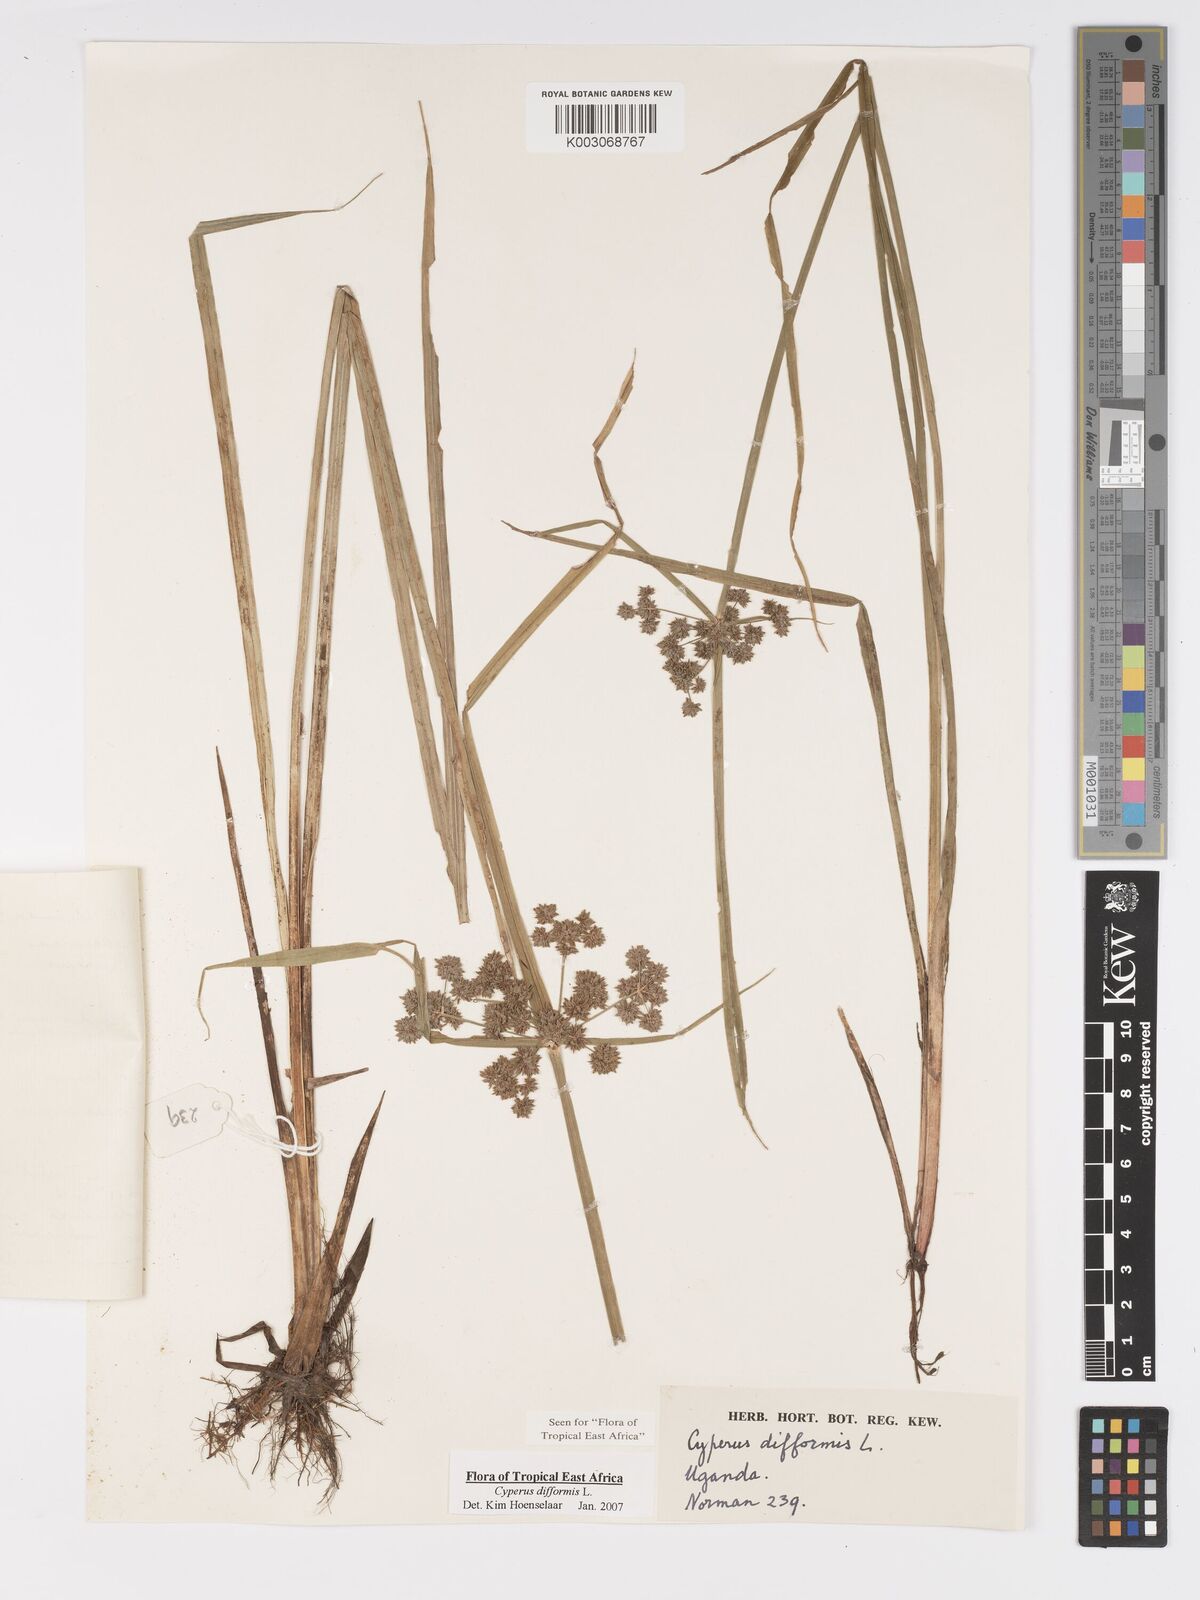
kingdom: Plantae
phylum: Tracheophyta
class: Liliopsida
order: Poales
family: Cyperaceae
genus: Cyperus
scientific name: Cyperus difformis
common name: Variable flatsedge
